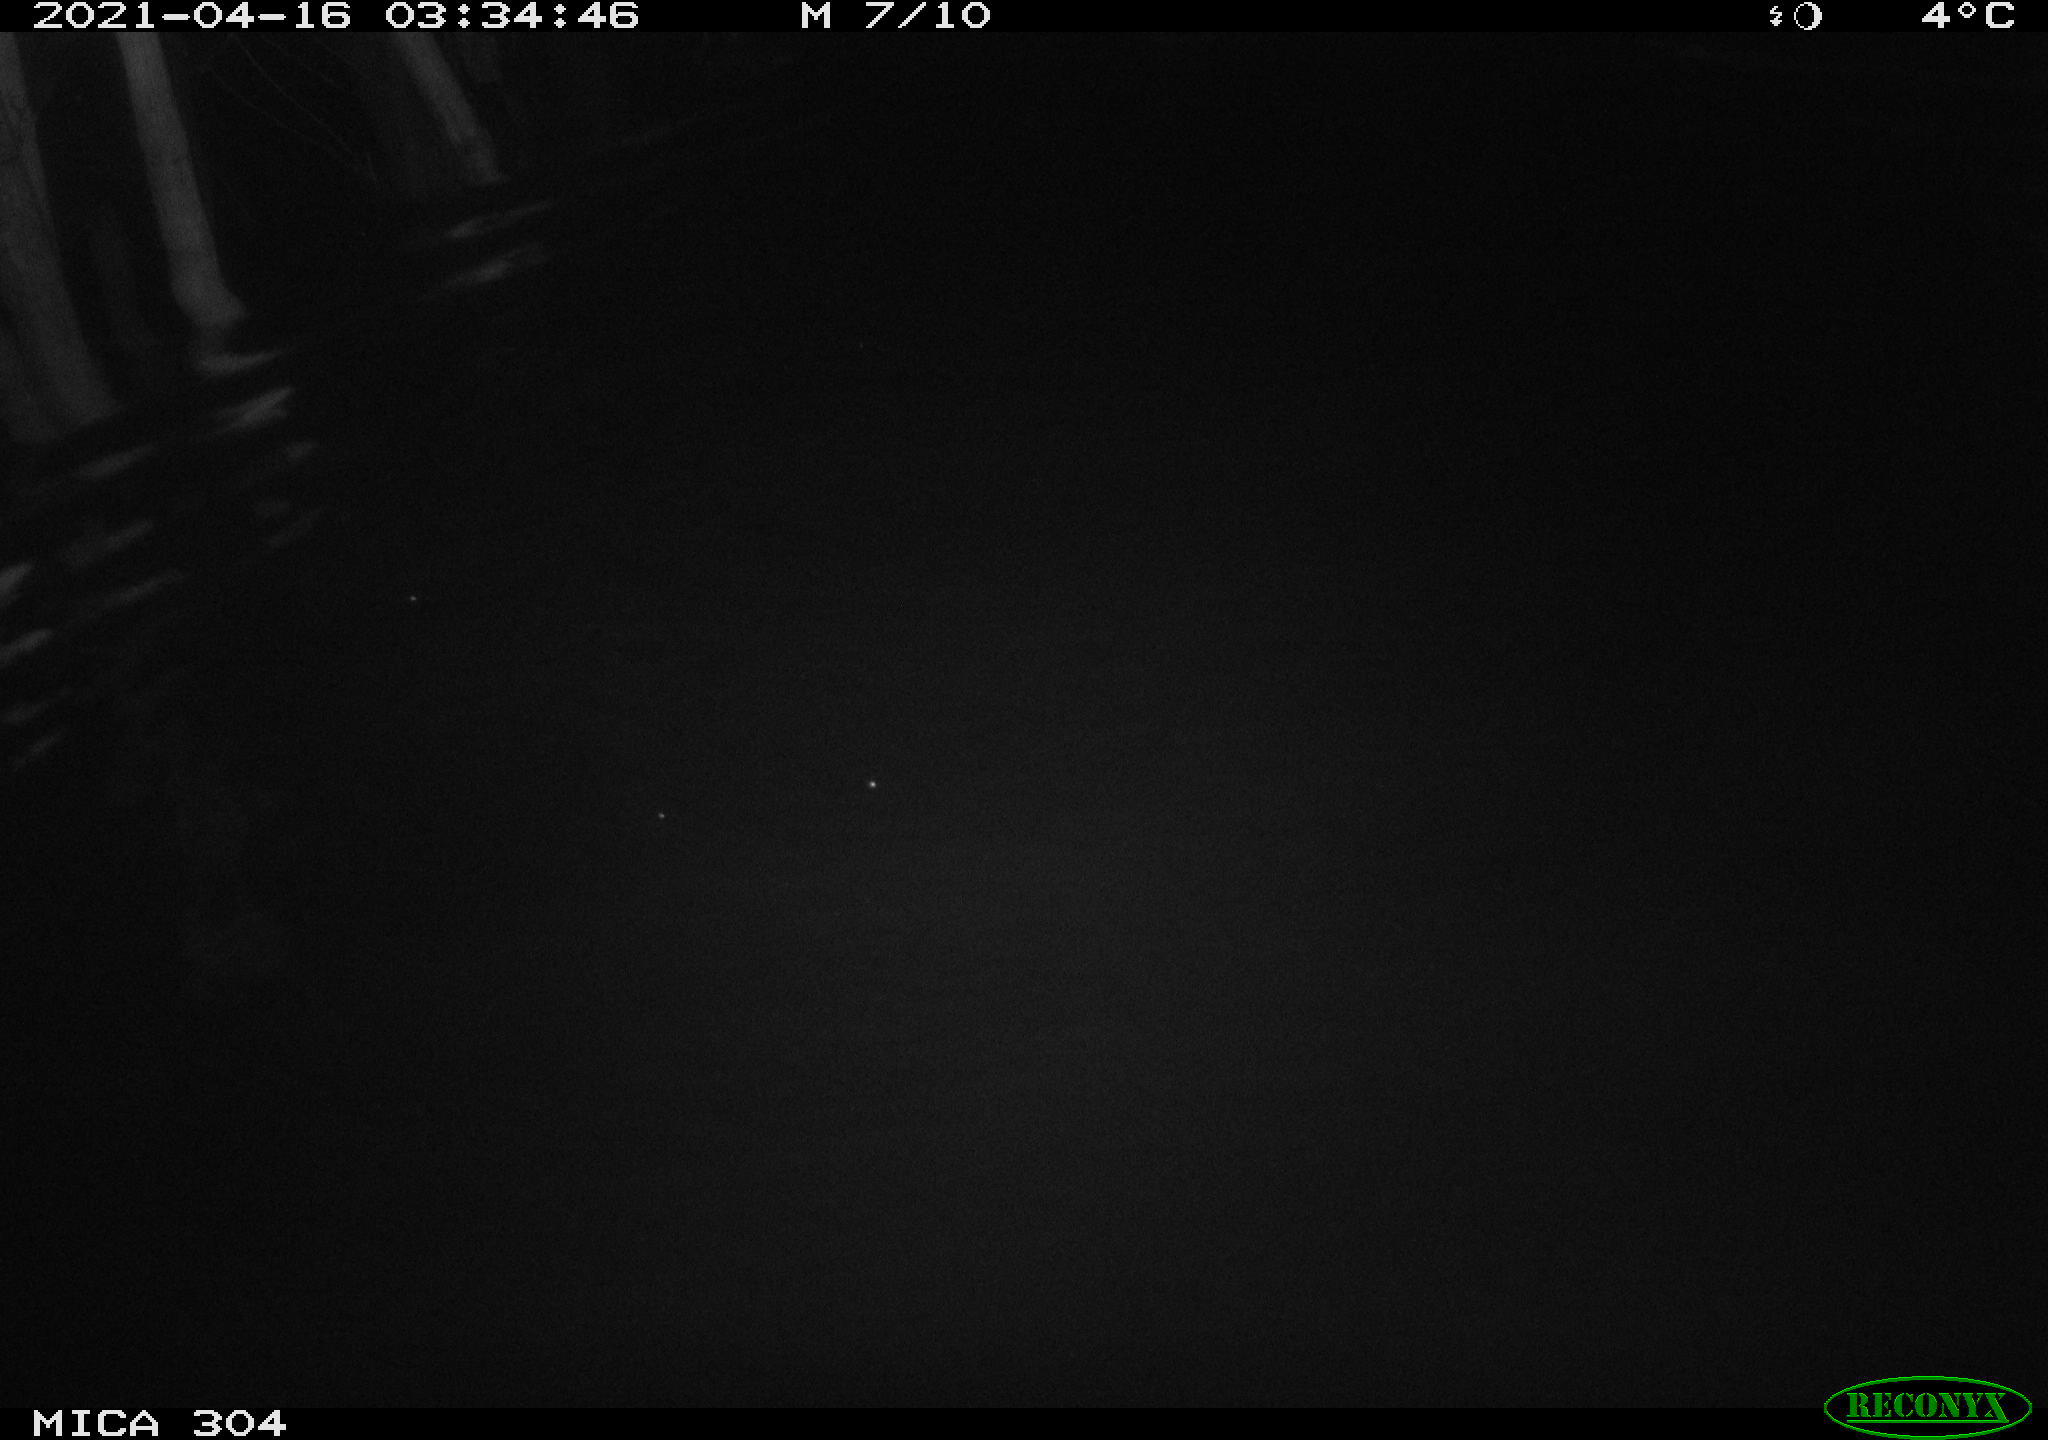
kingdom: Animalia
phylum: Chordata
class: Aves
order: Anseriformes
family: Anatidae
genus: Anas
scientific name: Anas
